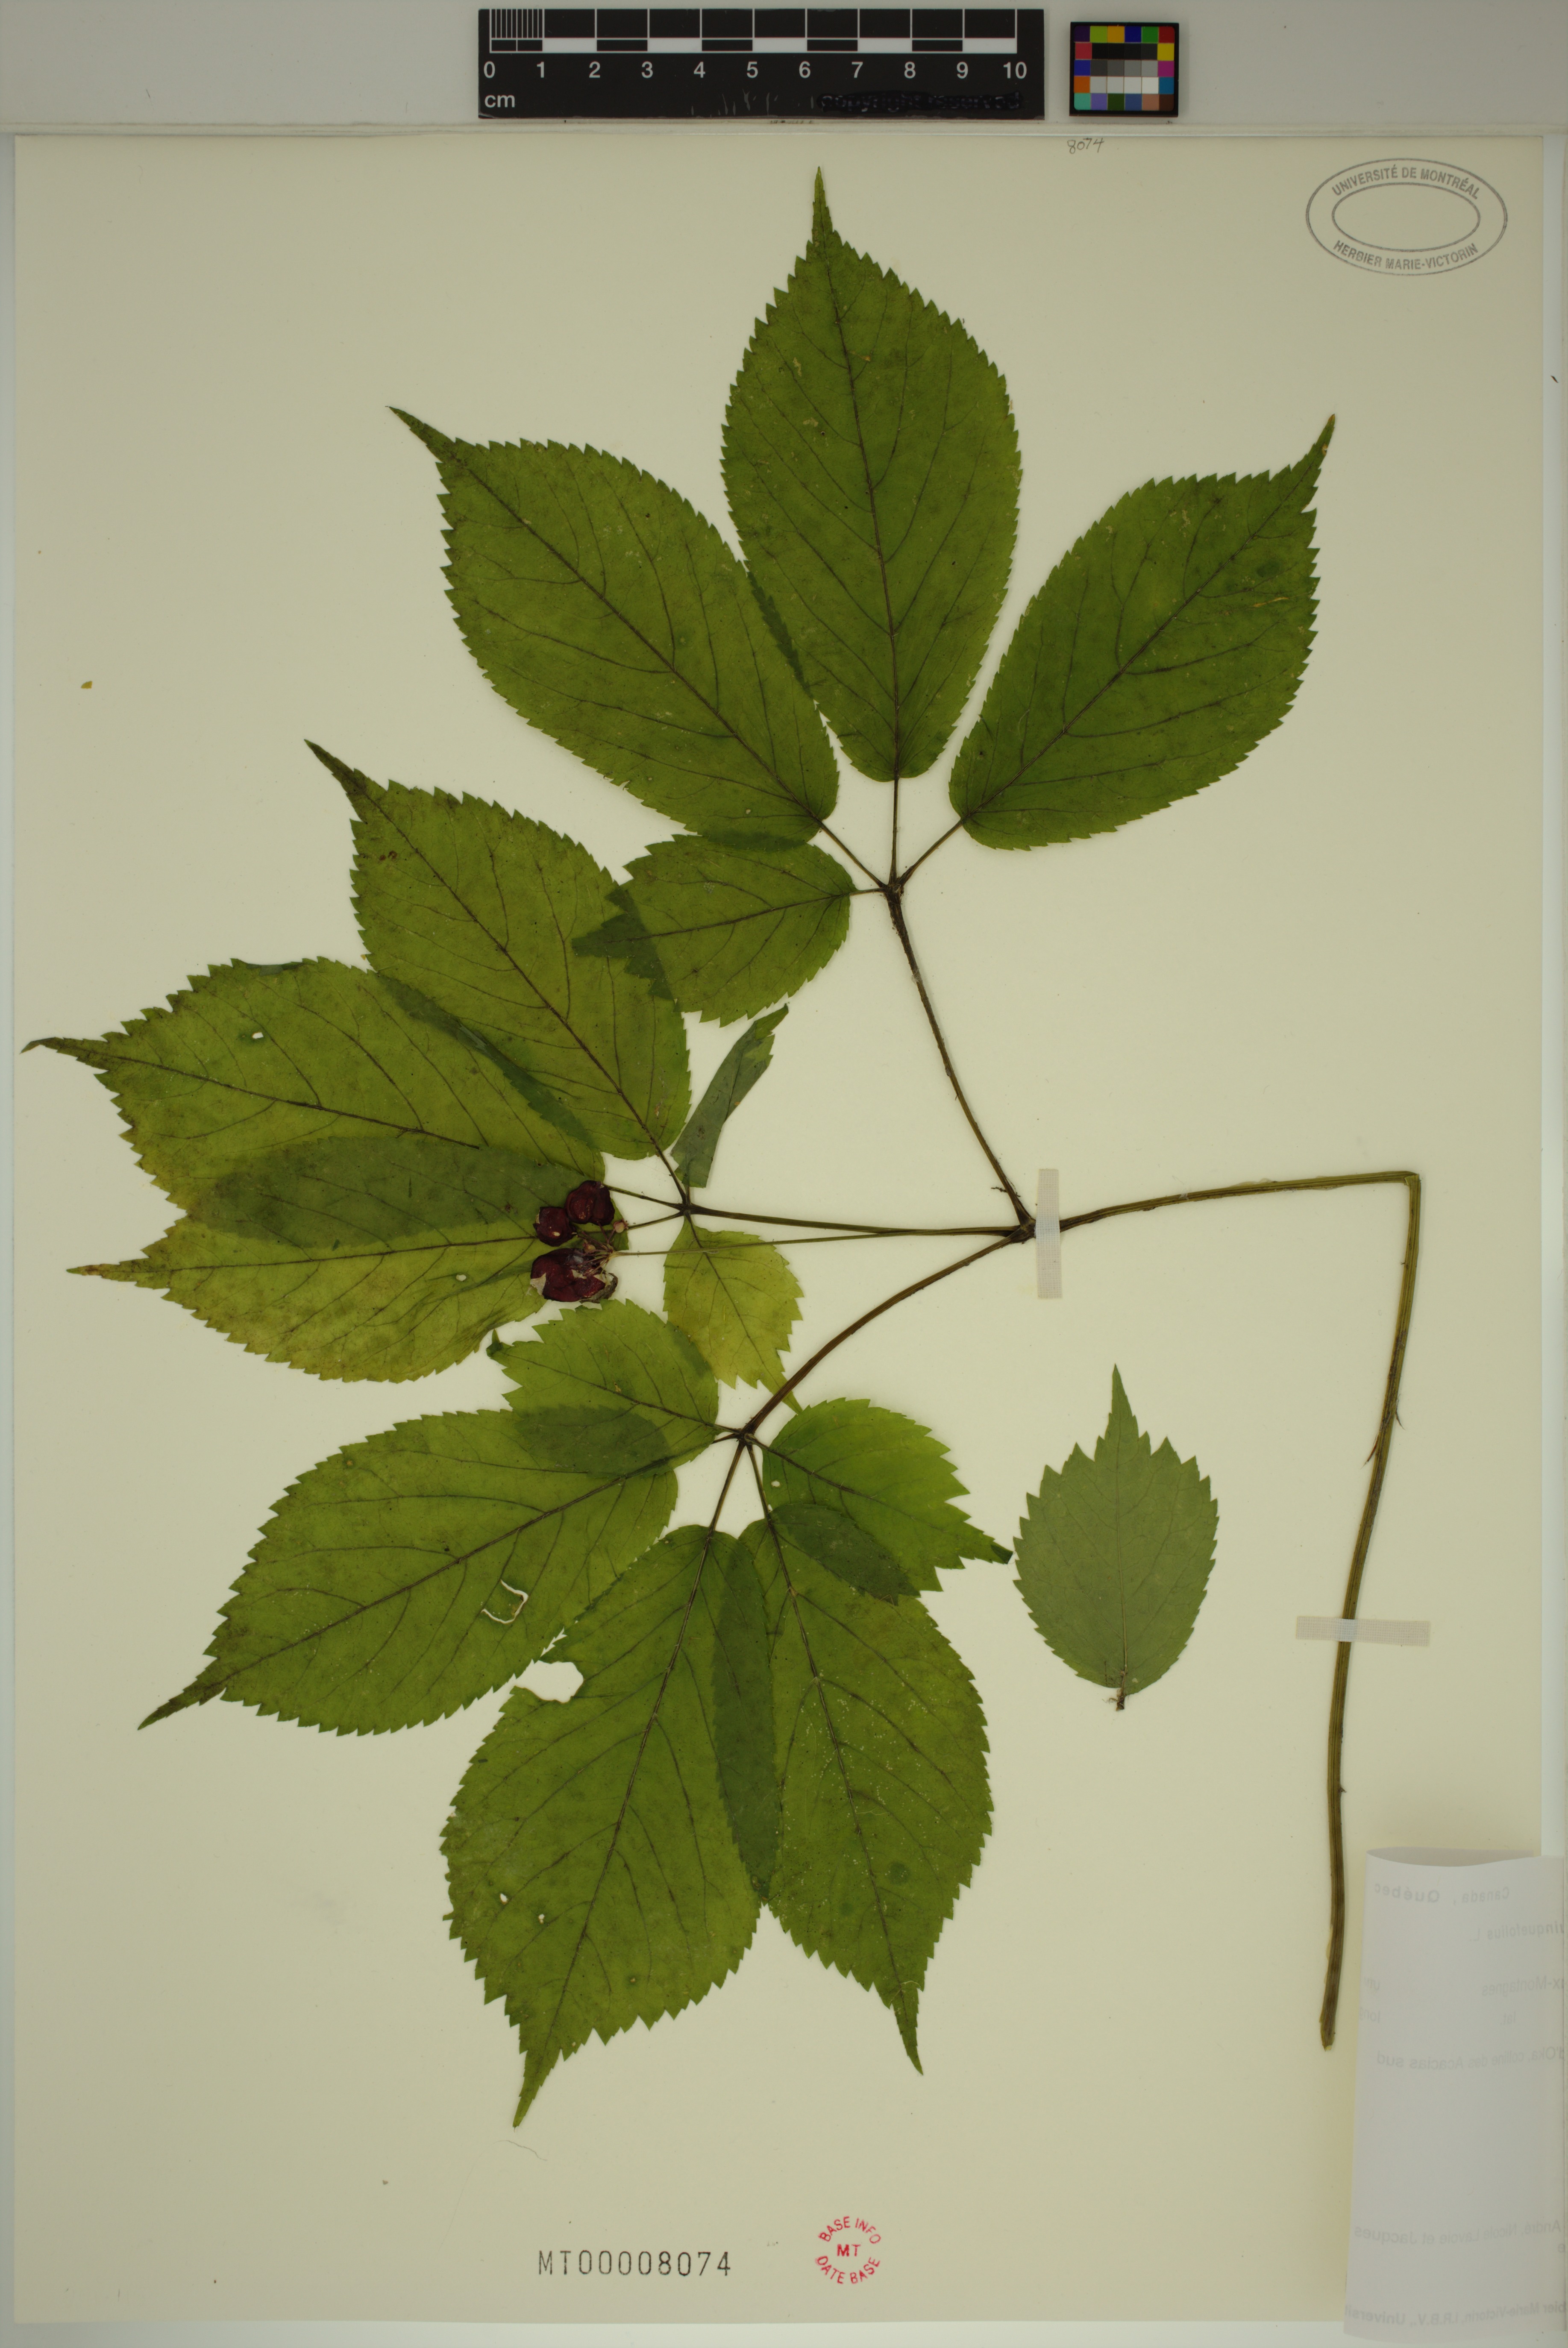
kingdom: Plantae
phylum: Tracheophyta
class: Magnoliopsida
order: Apiales
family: Araliaceae
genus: Panax
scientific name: Panax quinquefolius
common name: American ginseng
